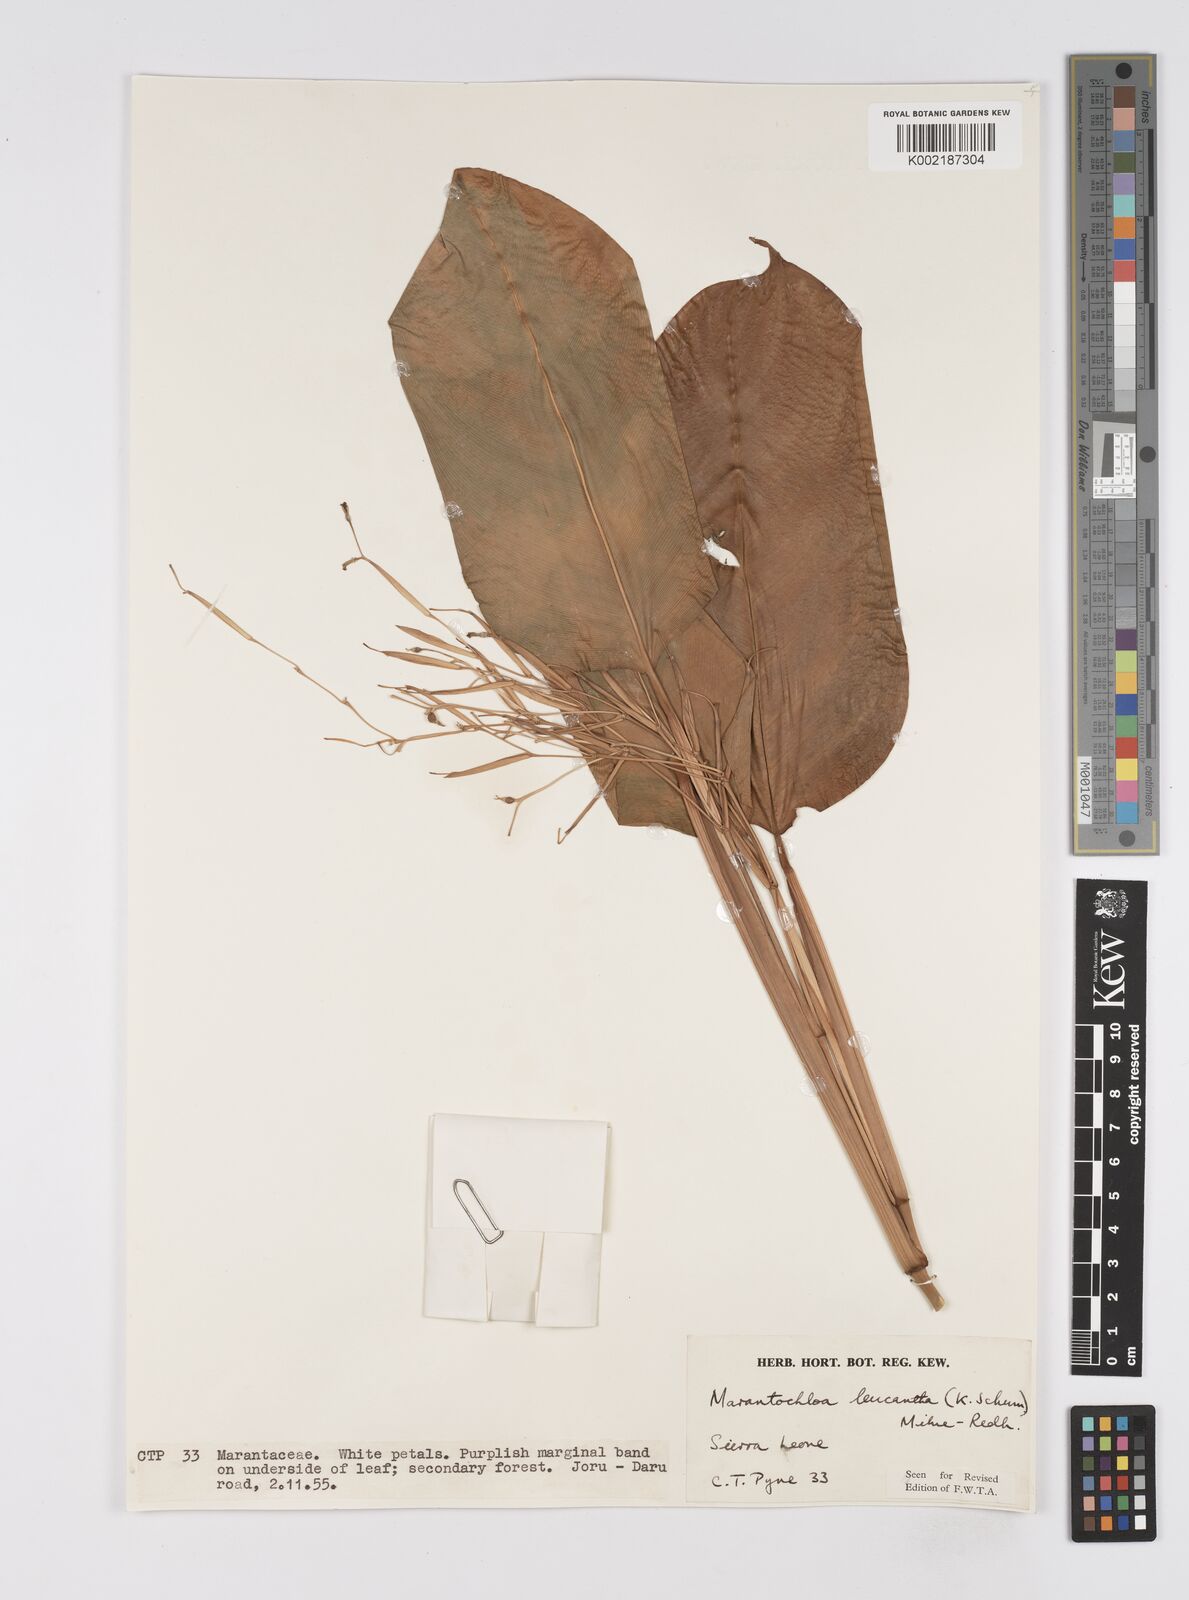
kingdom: Plantae
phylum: Tracheophyta
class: Liliopsida
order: Zingiberales
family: Marantaceae
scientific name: Marantaceae
